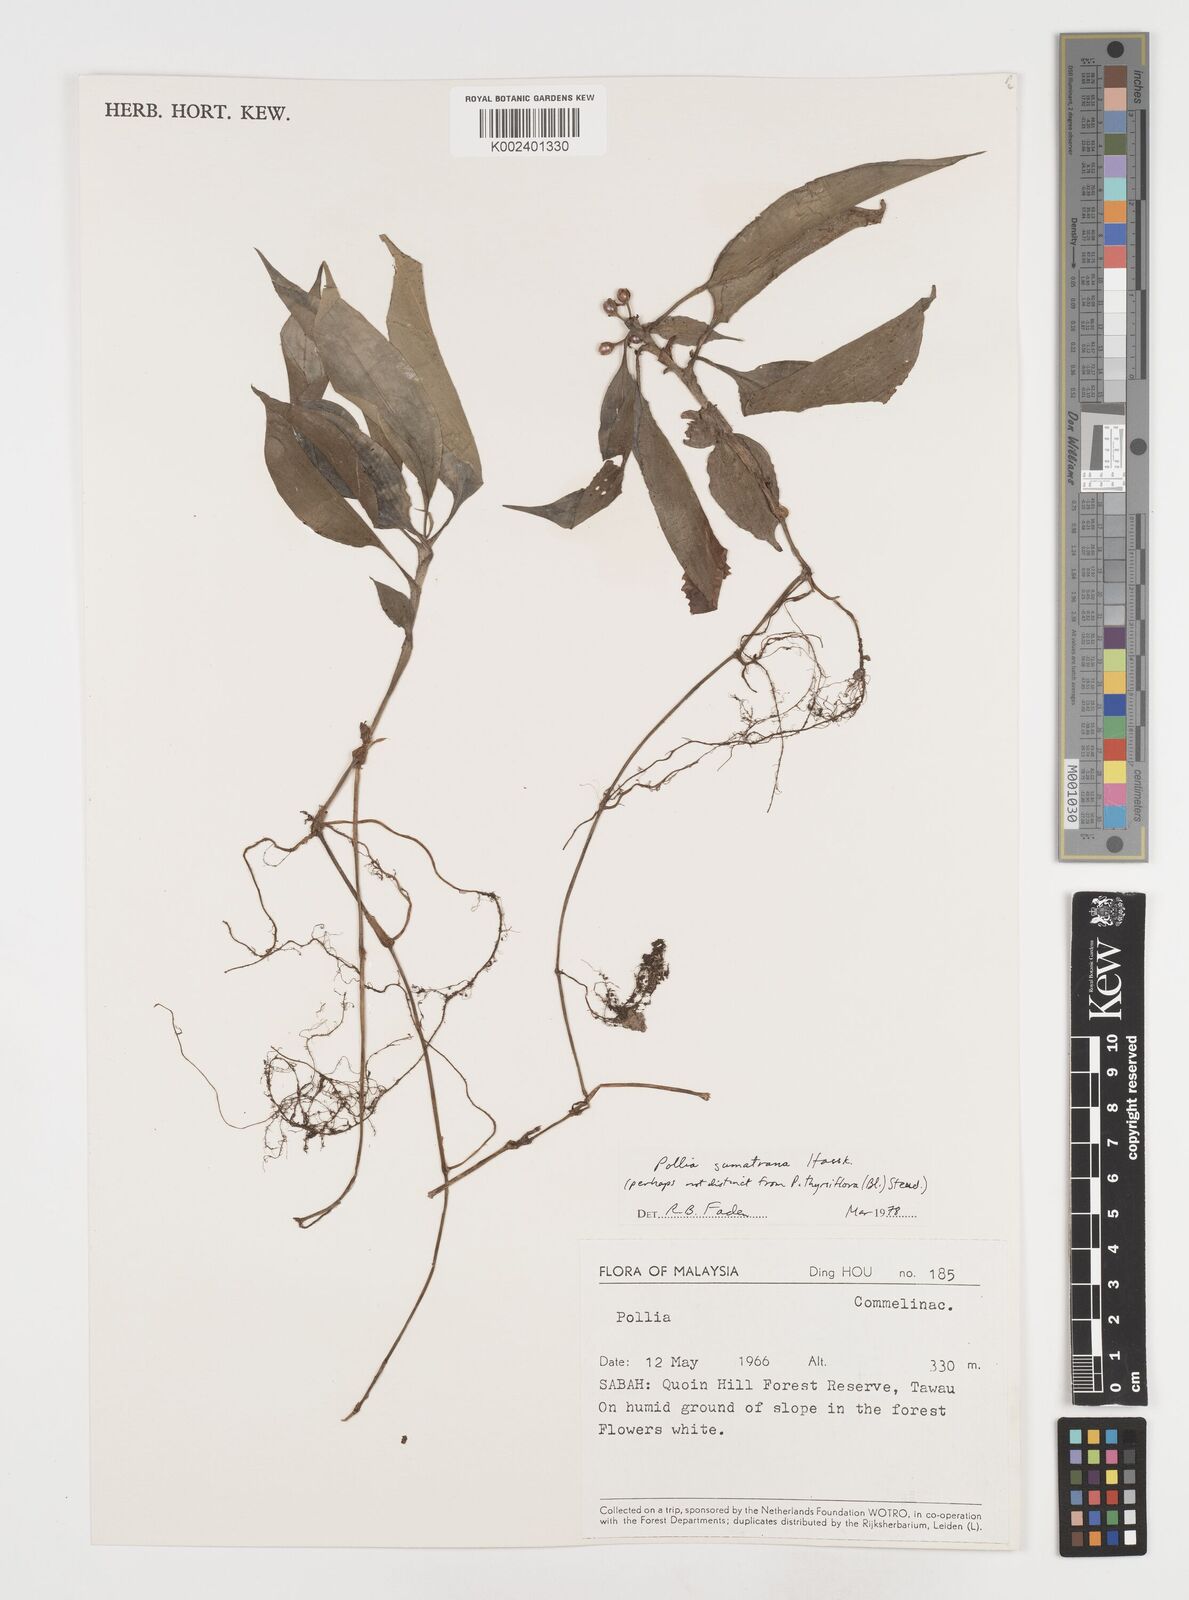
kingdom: Plantae
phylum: Tracheophyta
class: Liliopsida
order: Commelinales
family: Commelinaceae
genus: Pollia
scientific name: Pollia sumatrana
